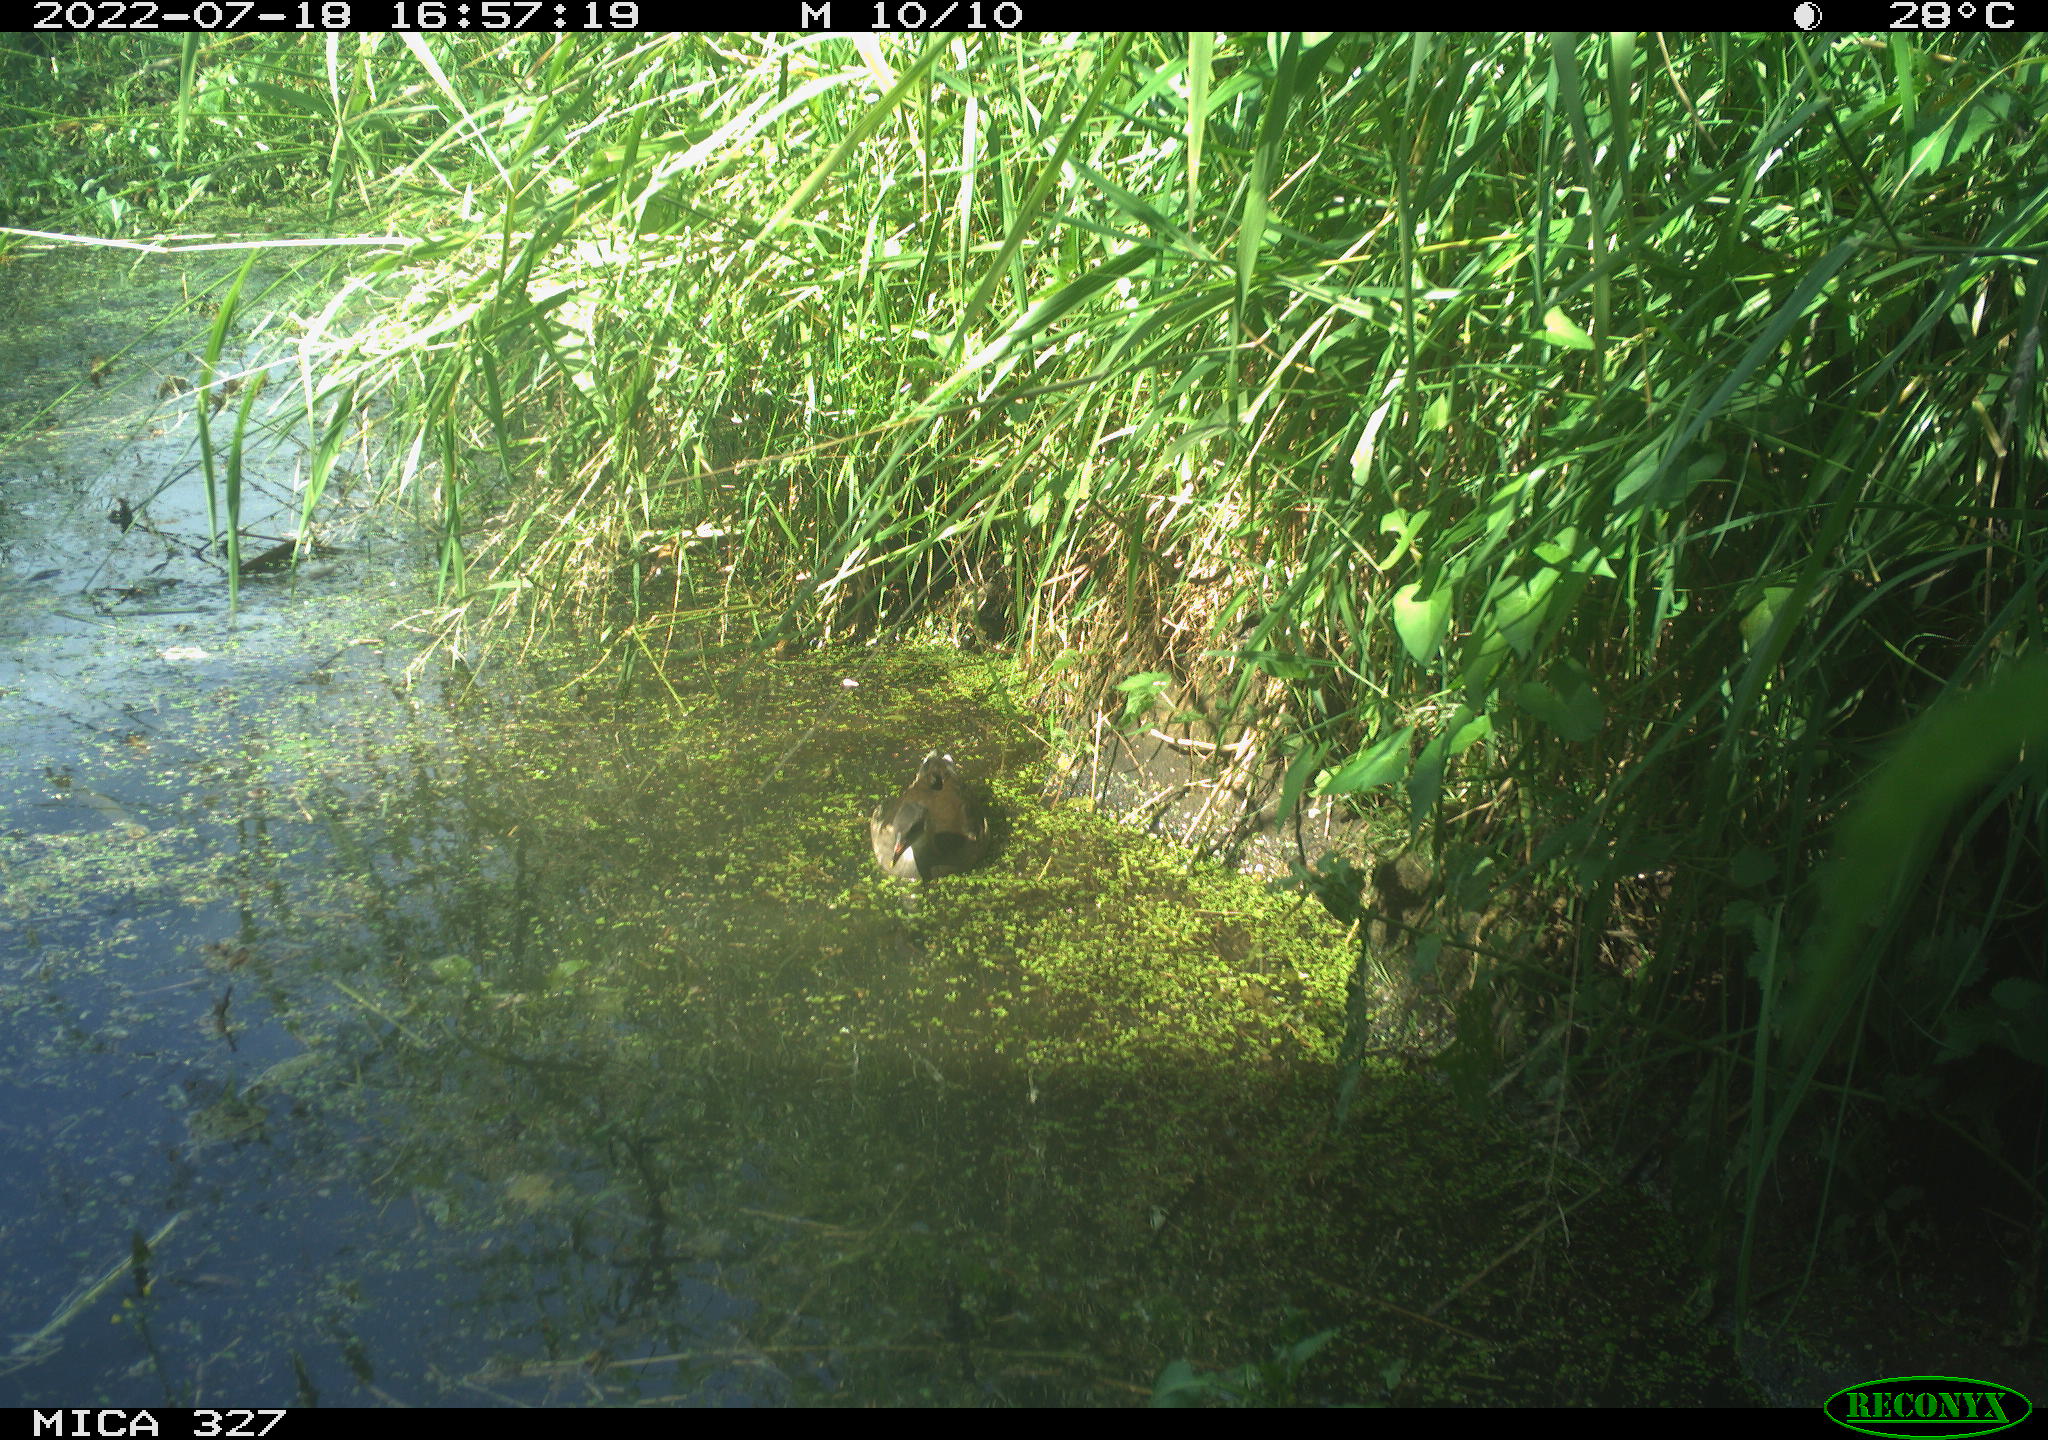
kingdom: Animalia
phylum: Chordata
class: Aves
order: Gruiformes
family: Rallidae
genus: Gallinula
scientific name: Gallinula chloropus
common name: Common moorhen
